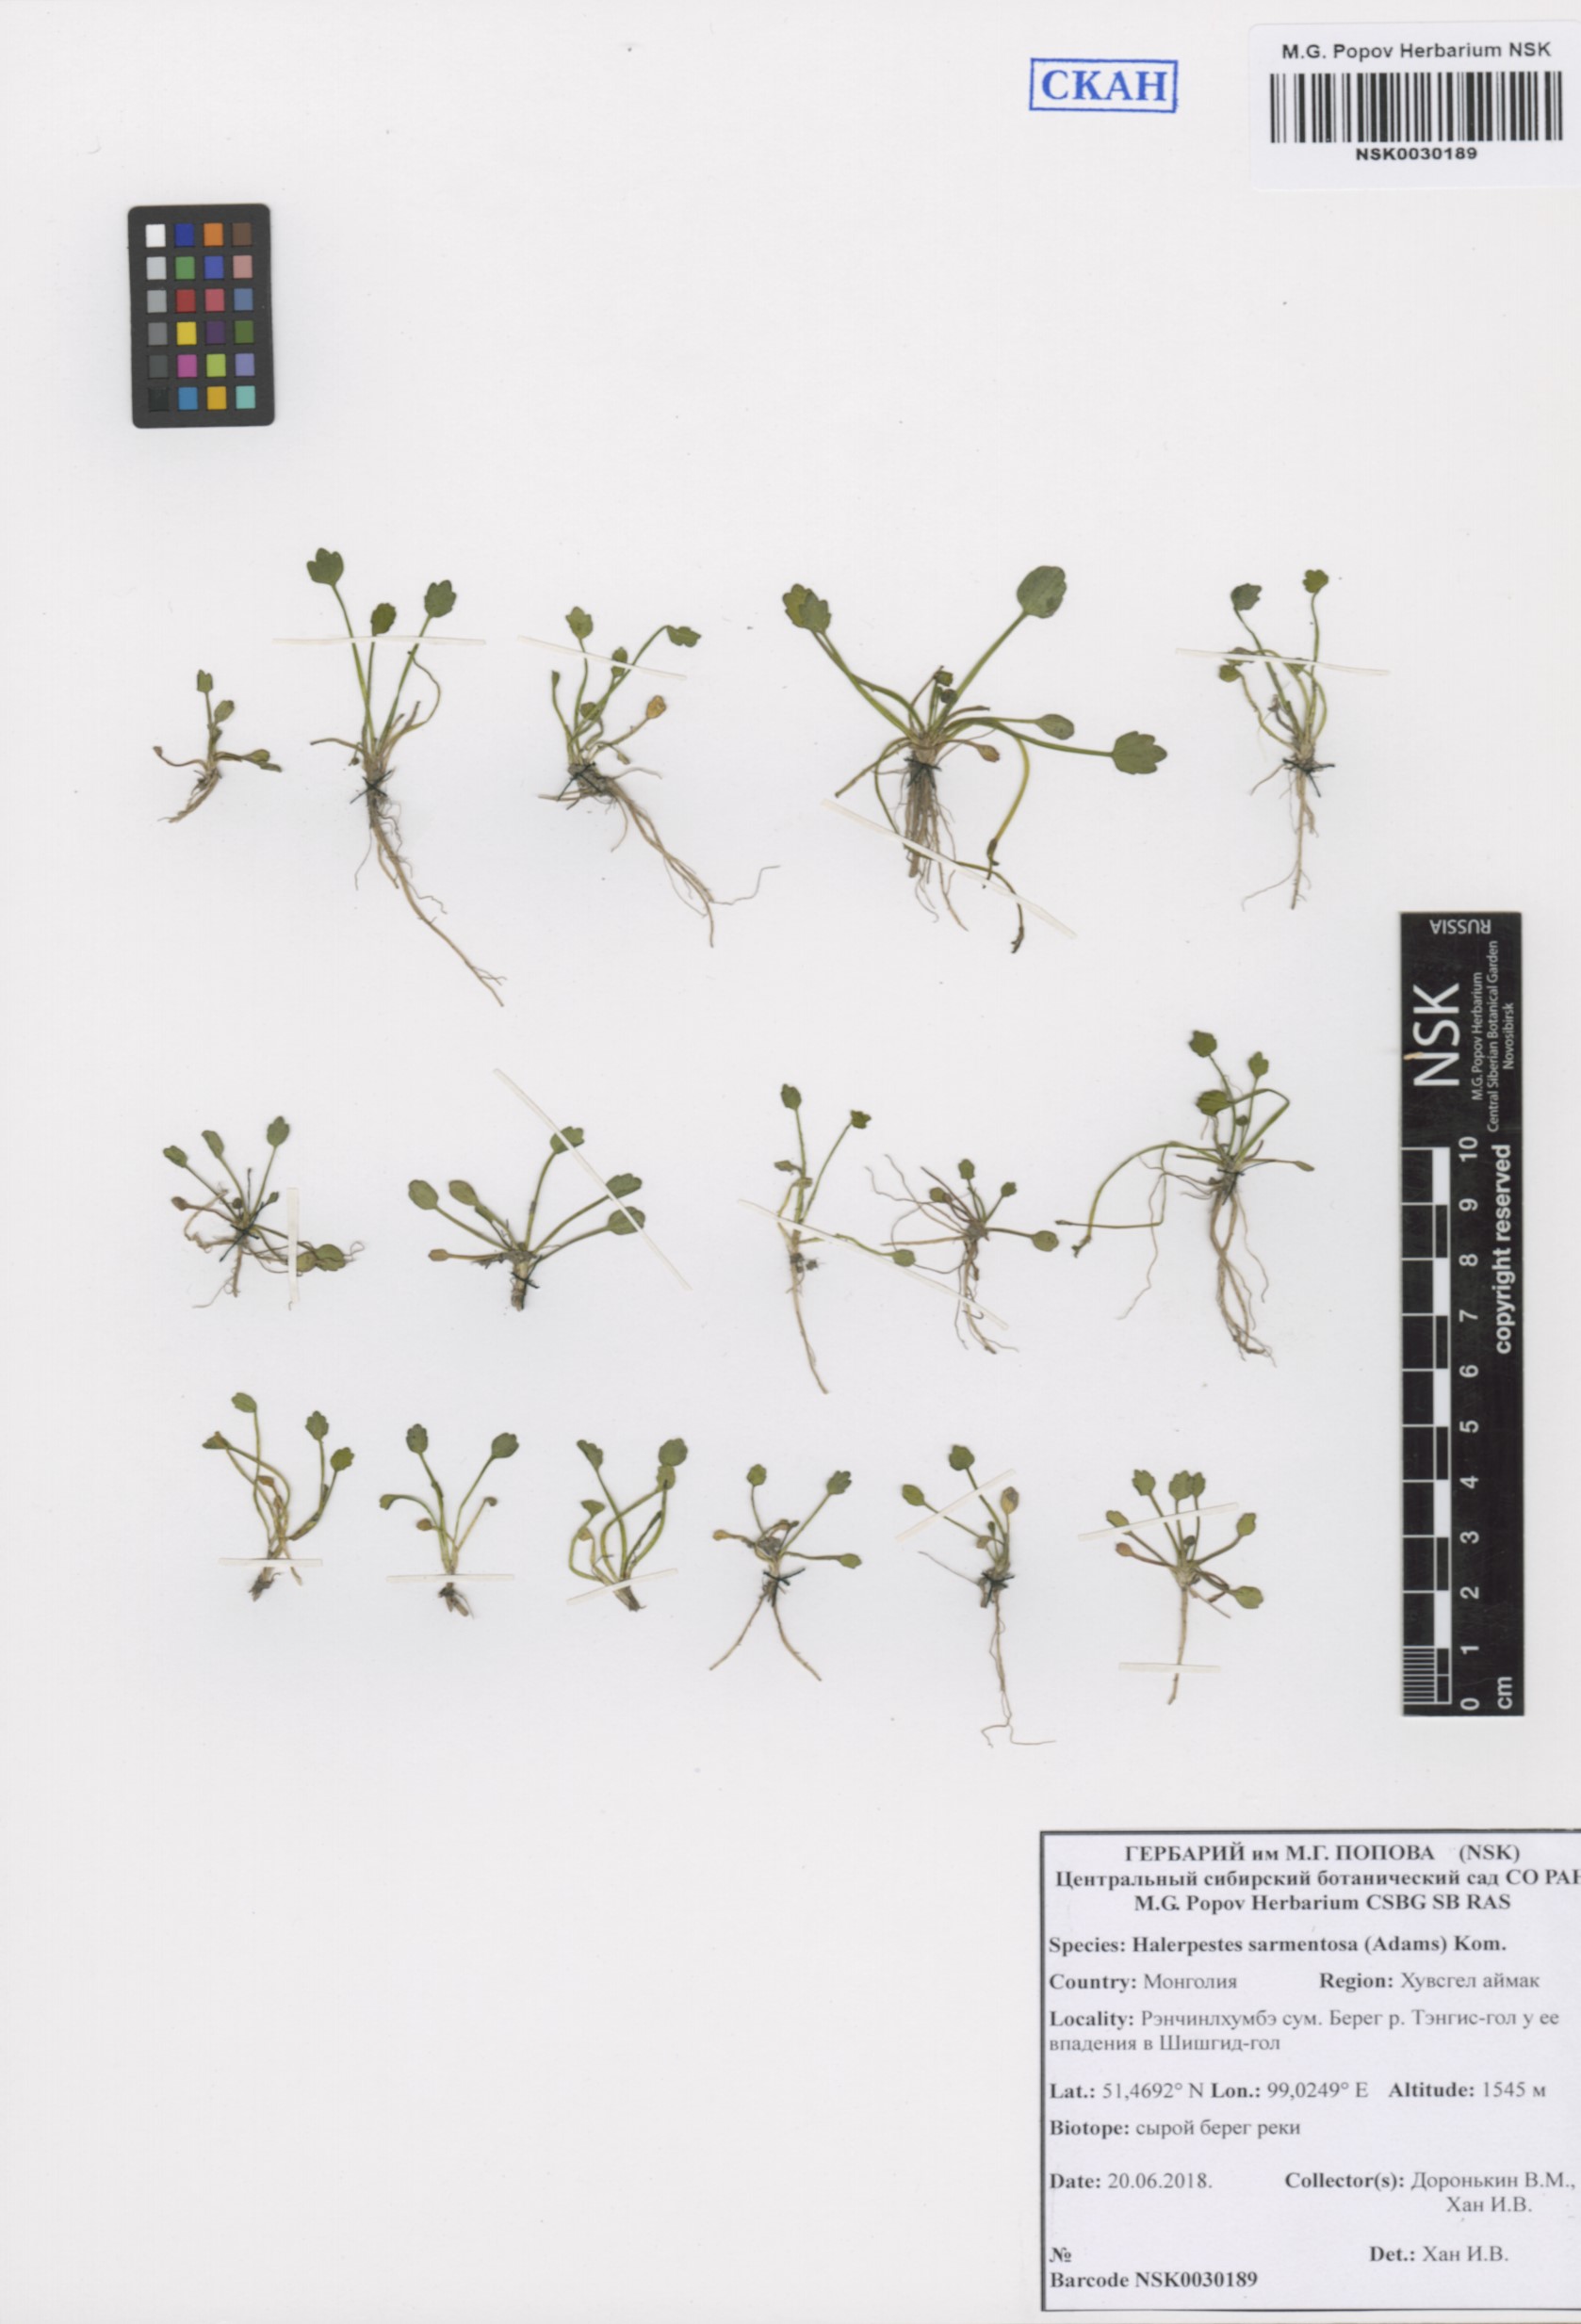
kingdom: Plantae
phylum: Tracheophyta
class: Magnoliopsida
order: Ranunculales
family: Ranunculaceae
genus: Halerpestes
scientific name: Halerpestes sarmentosus
